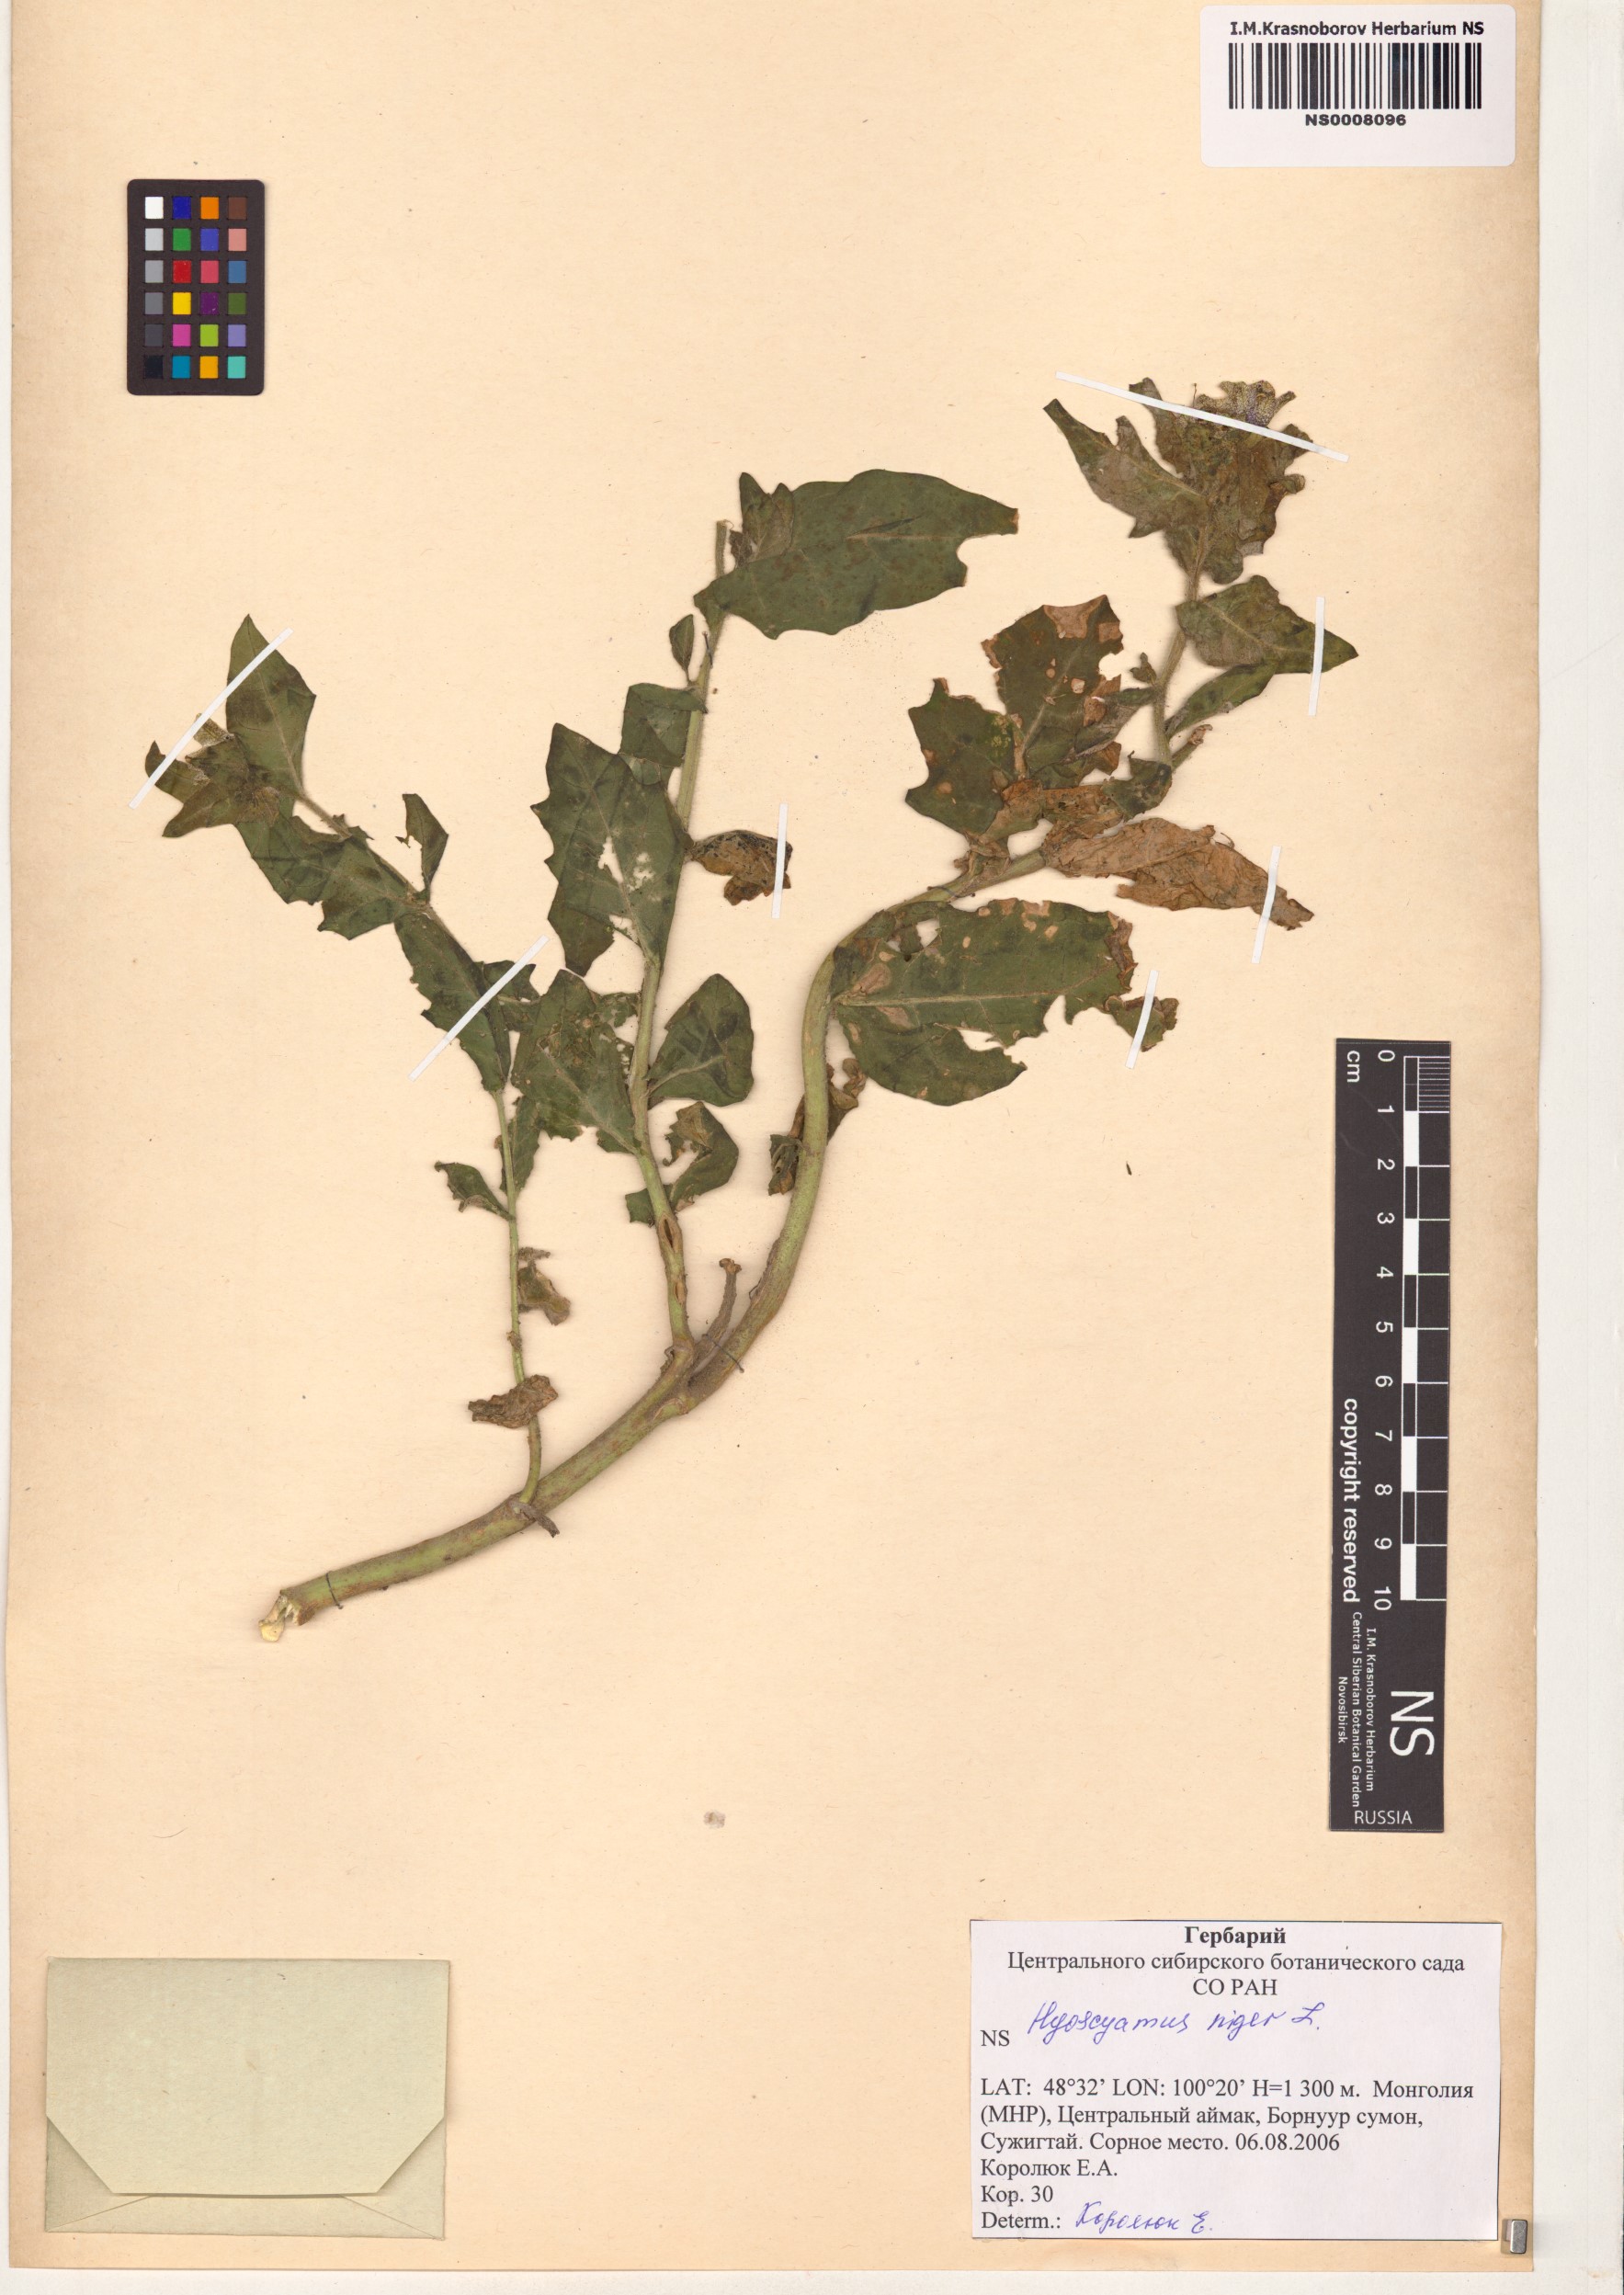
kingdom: Plantae
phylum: Tracheophyta
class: Magnoliopsida
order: Solanales
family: Solanaceae
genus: Hyoscyamus
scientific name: Hyoscyamus niger
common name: Henbane
